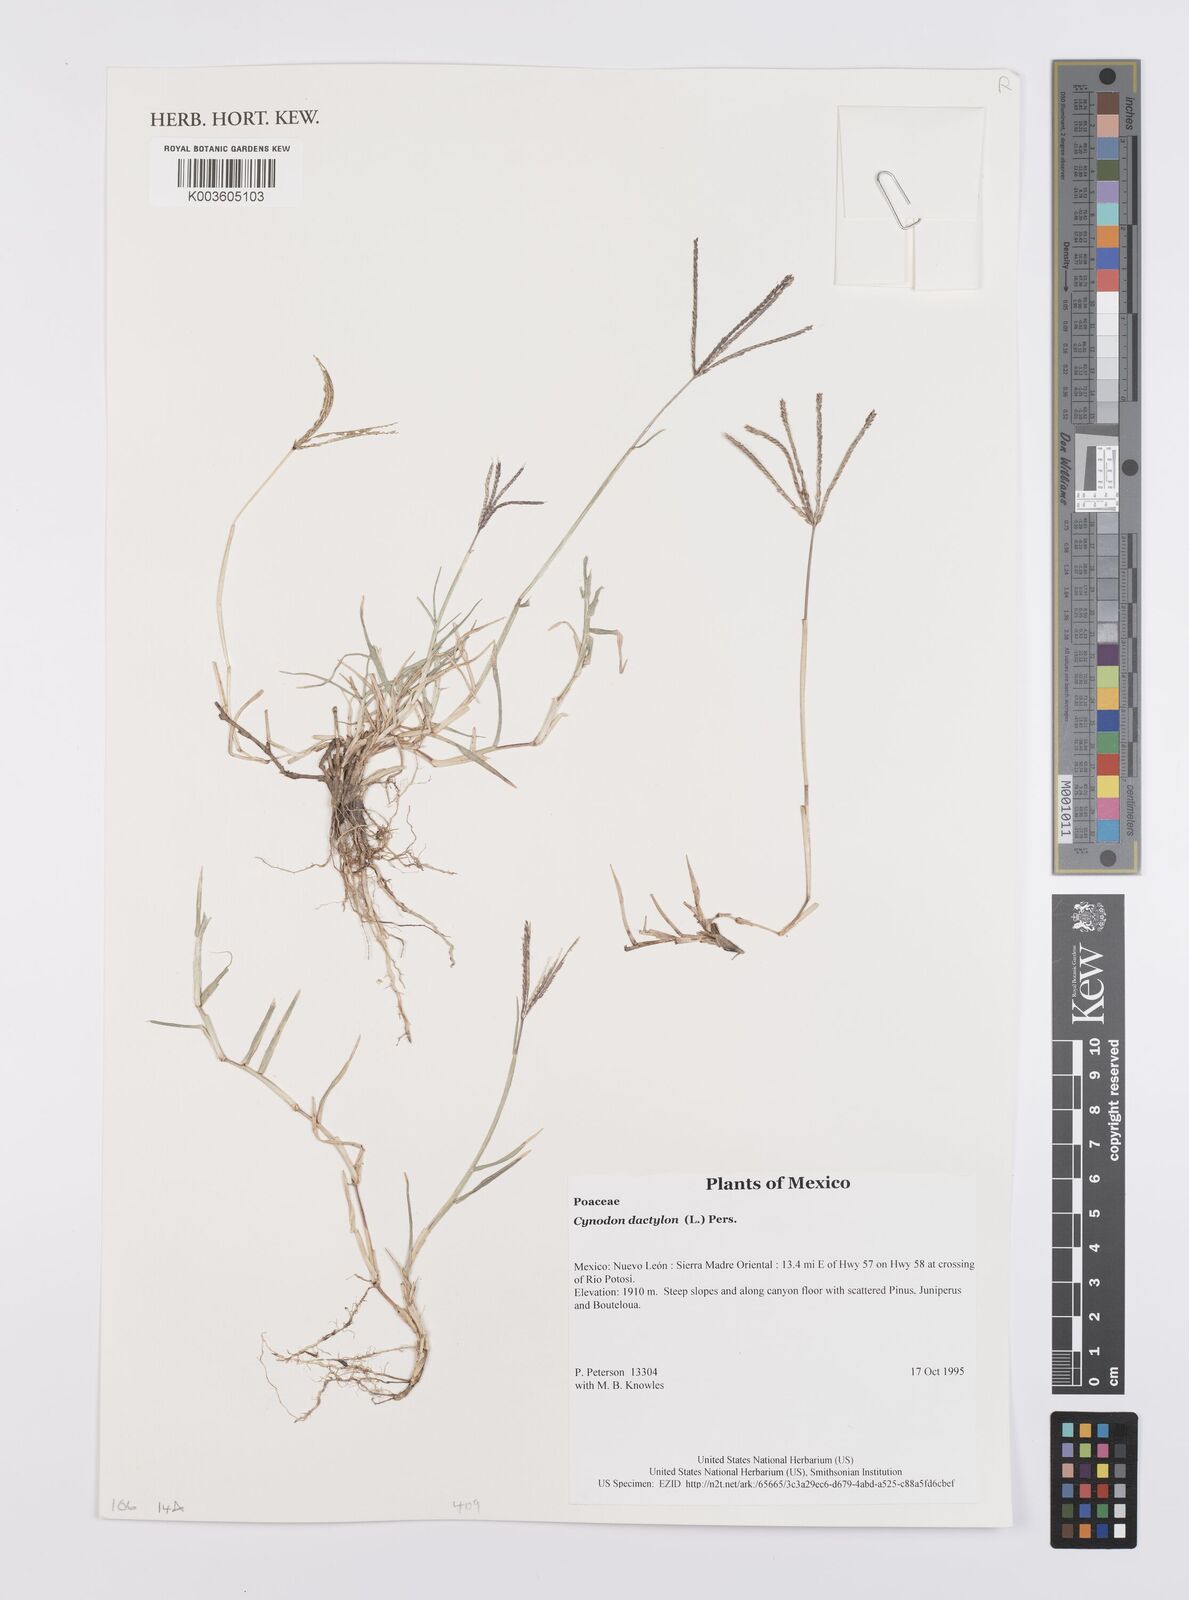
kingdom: Plantae
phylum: Tracheophyta
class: Liliopsida
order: Poales
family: Poaceae
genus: Cynodon
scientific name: Cynodon dactylon
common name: Bermuda grass
